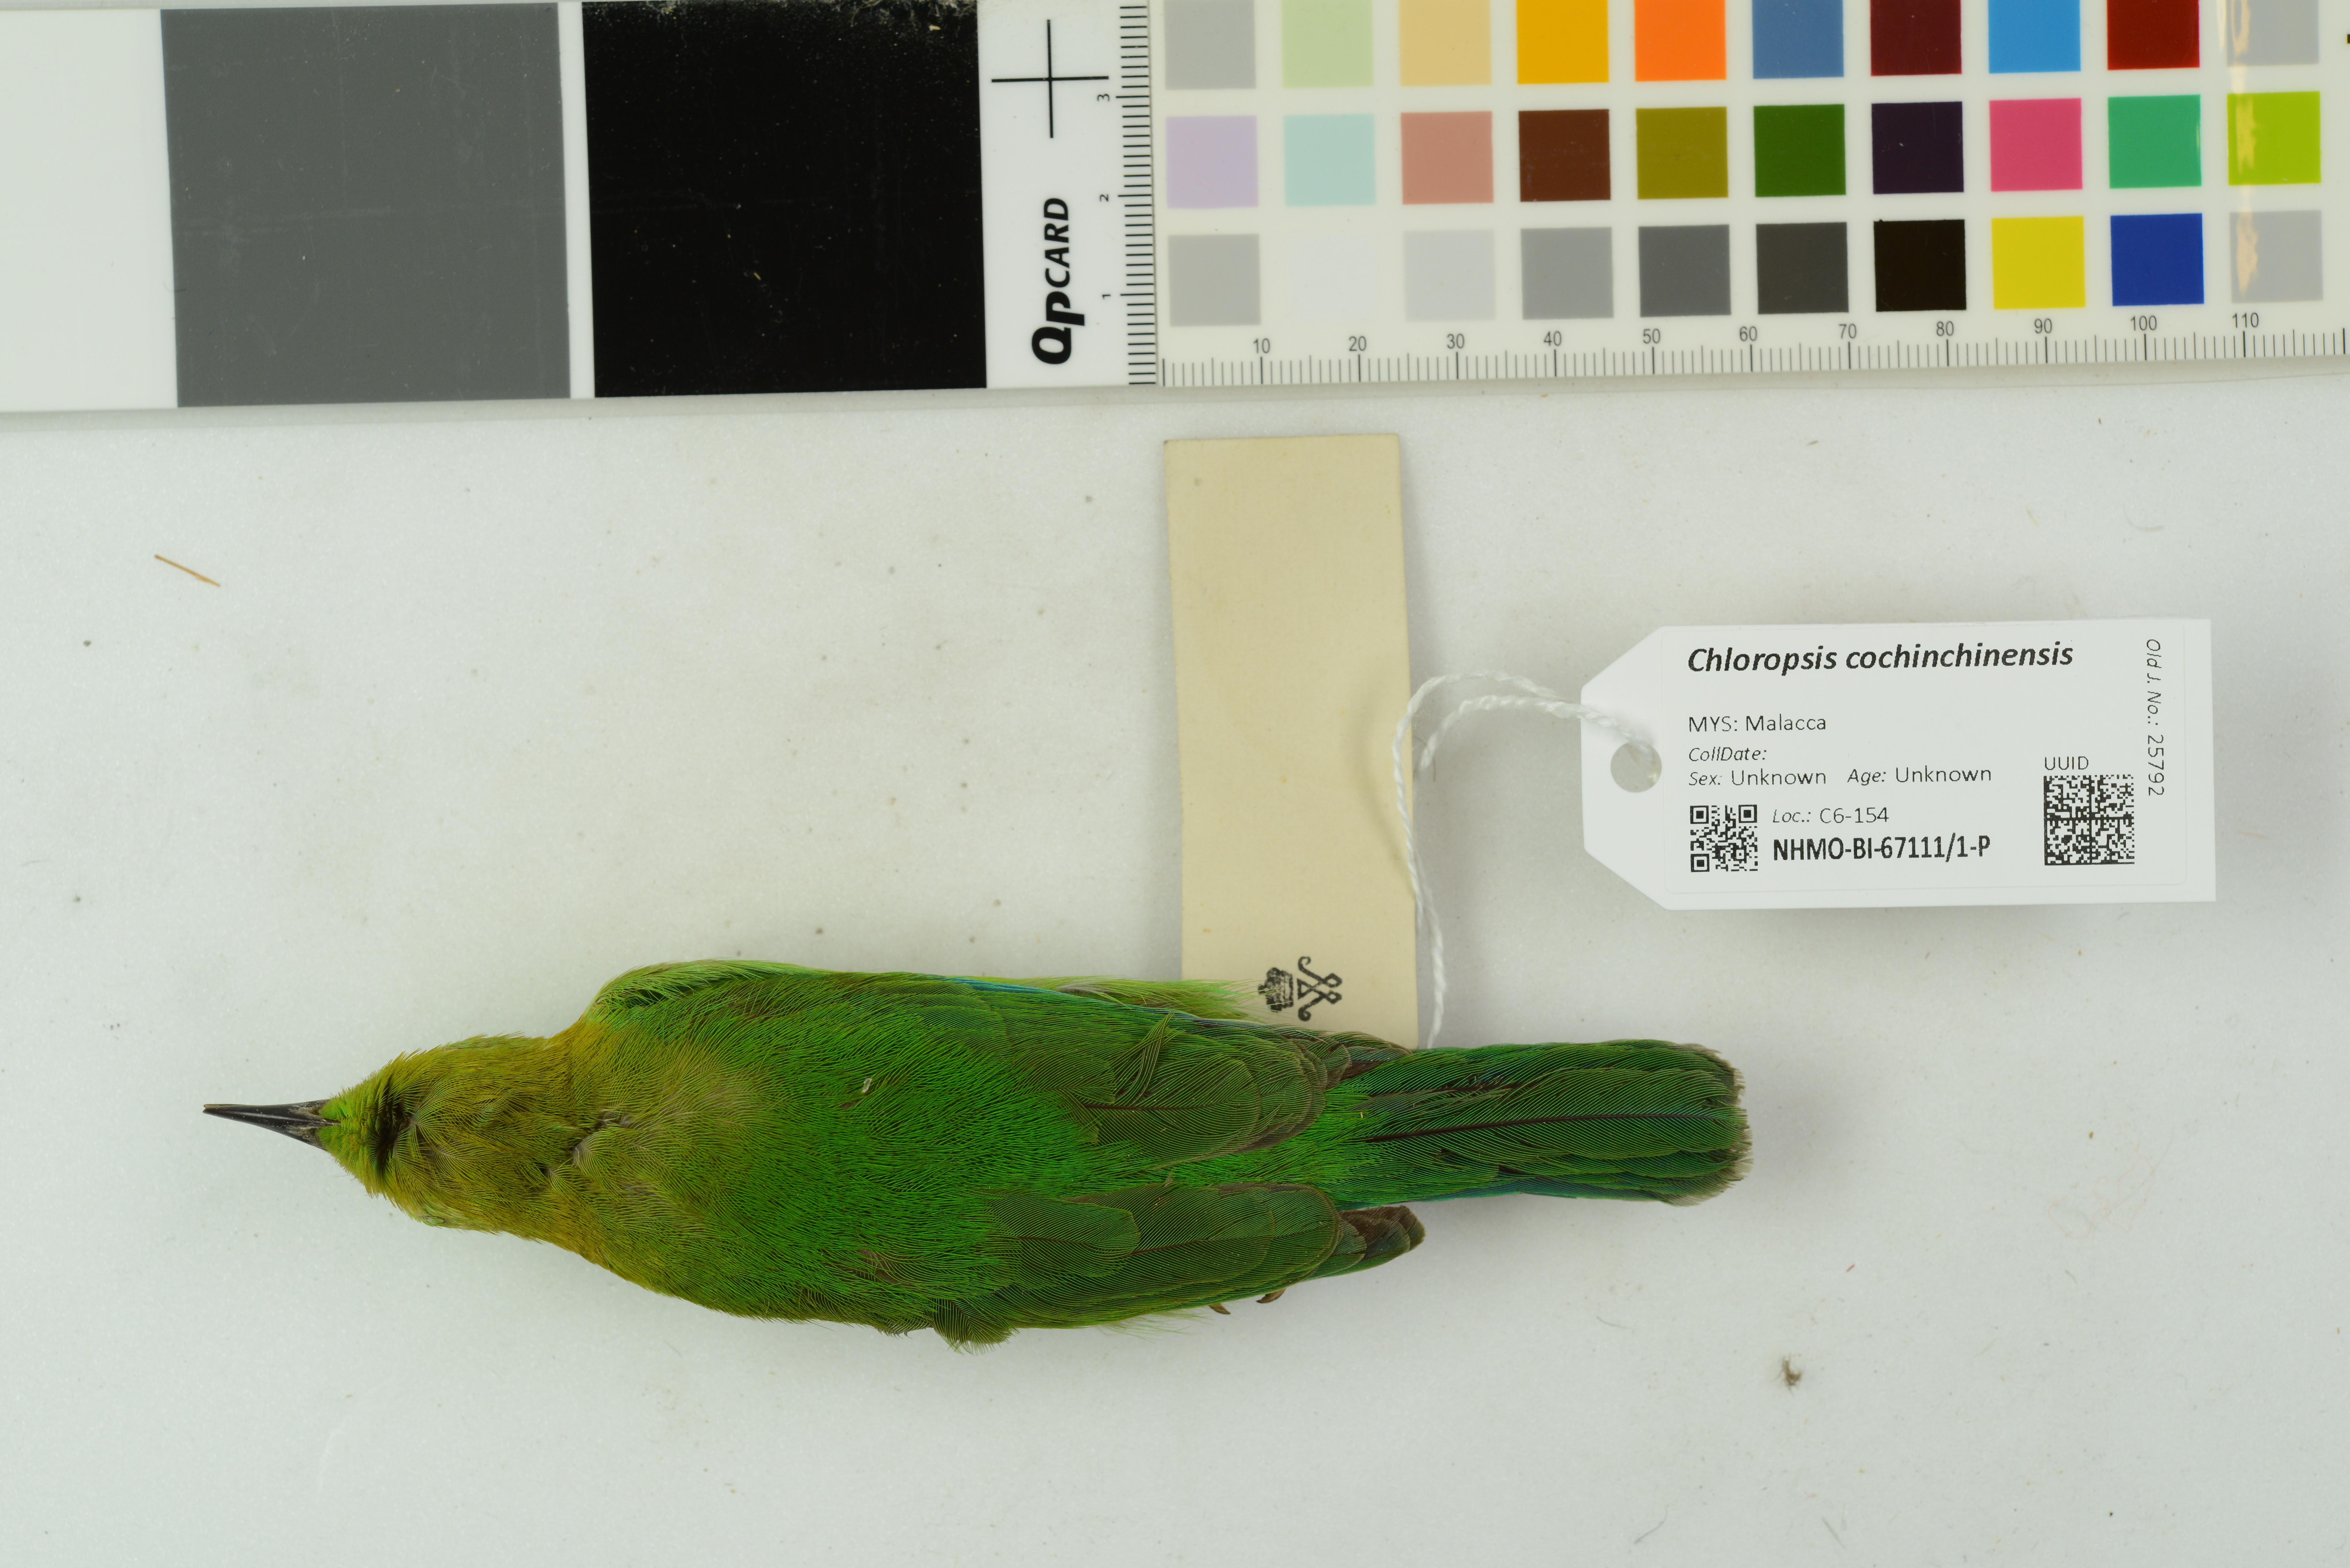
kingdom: Animalia
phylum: Chordata
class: Aves
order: Passeriformes
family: Chloropseidae
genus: Chloropsis
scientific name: Chloropsis cochinchinensis
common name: Blue-winged leafbird
